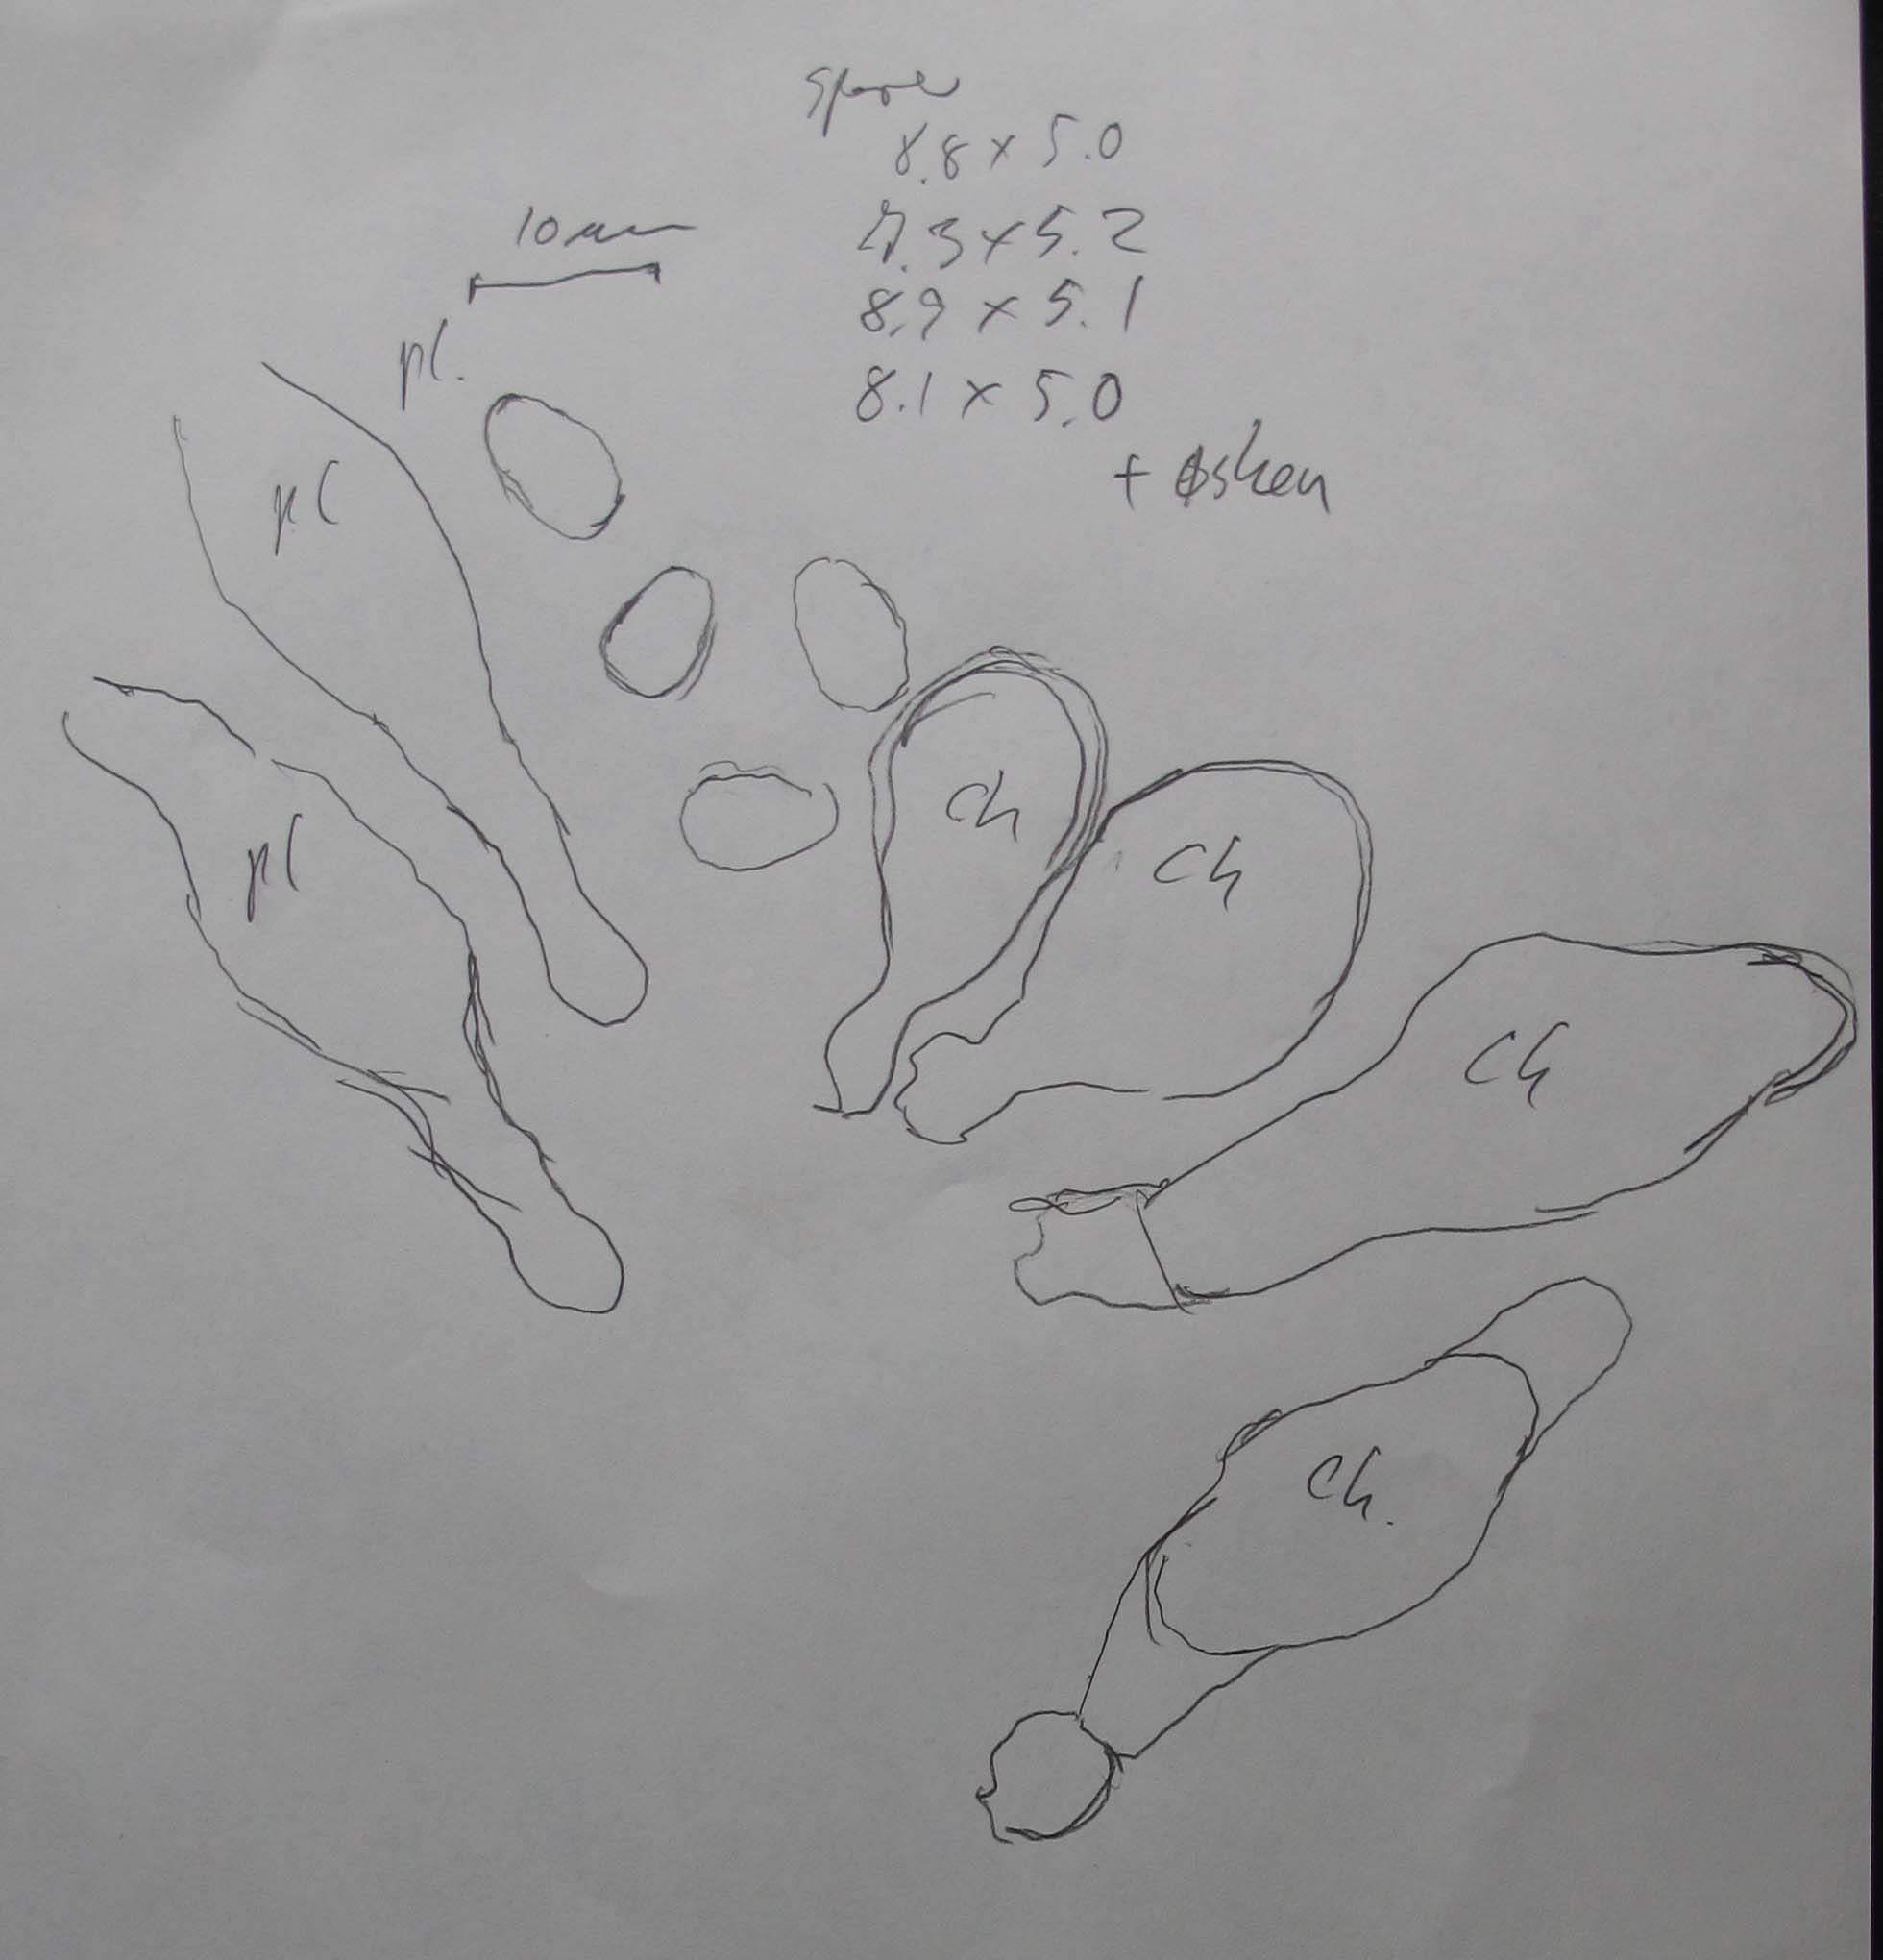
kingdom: Fungi
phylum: Basidiomycota
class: Agaricomycetes
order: Agaricales
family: Psathyrellaceae
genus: Psathyrella
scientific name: Psathyrella obtusata
